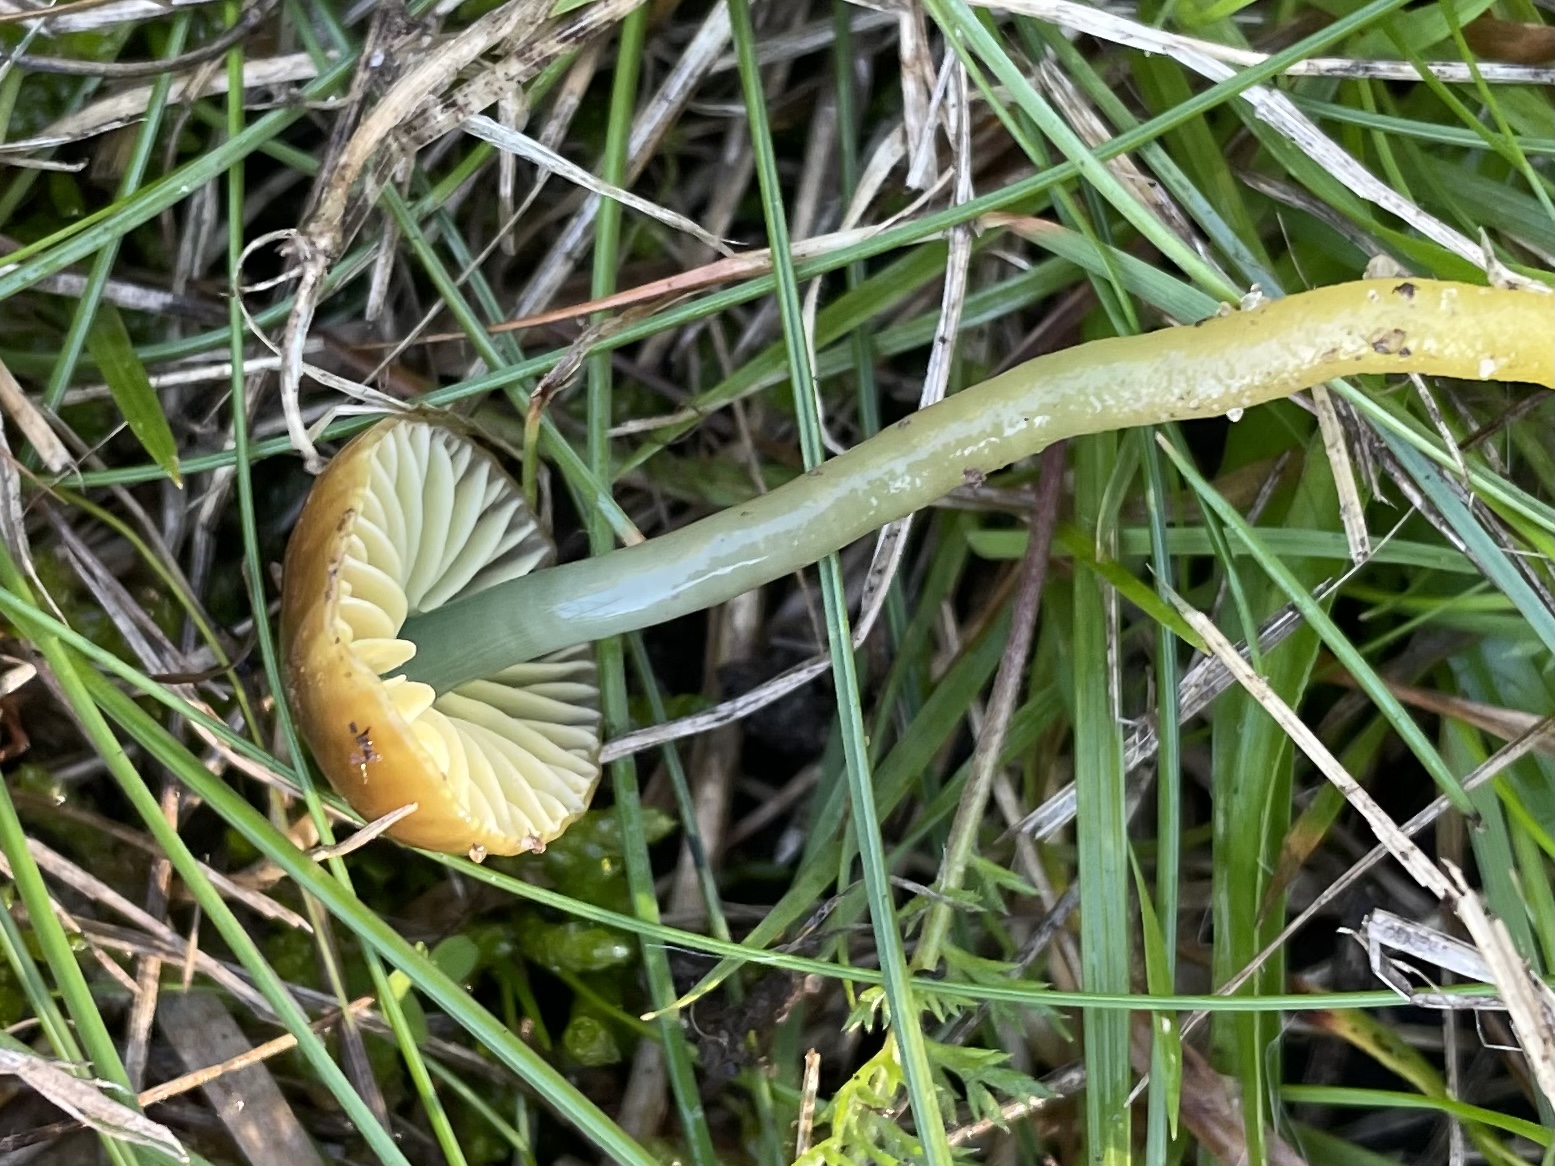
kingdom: Fungi
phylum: Basidiomycota
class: Agaricomycetes
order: Agaricales
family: Hygrophoraceae
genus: Gliophorus
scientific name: Gliophorus psittacinus
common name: papegøje-vokshat
